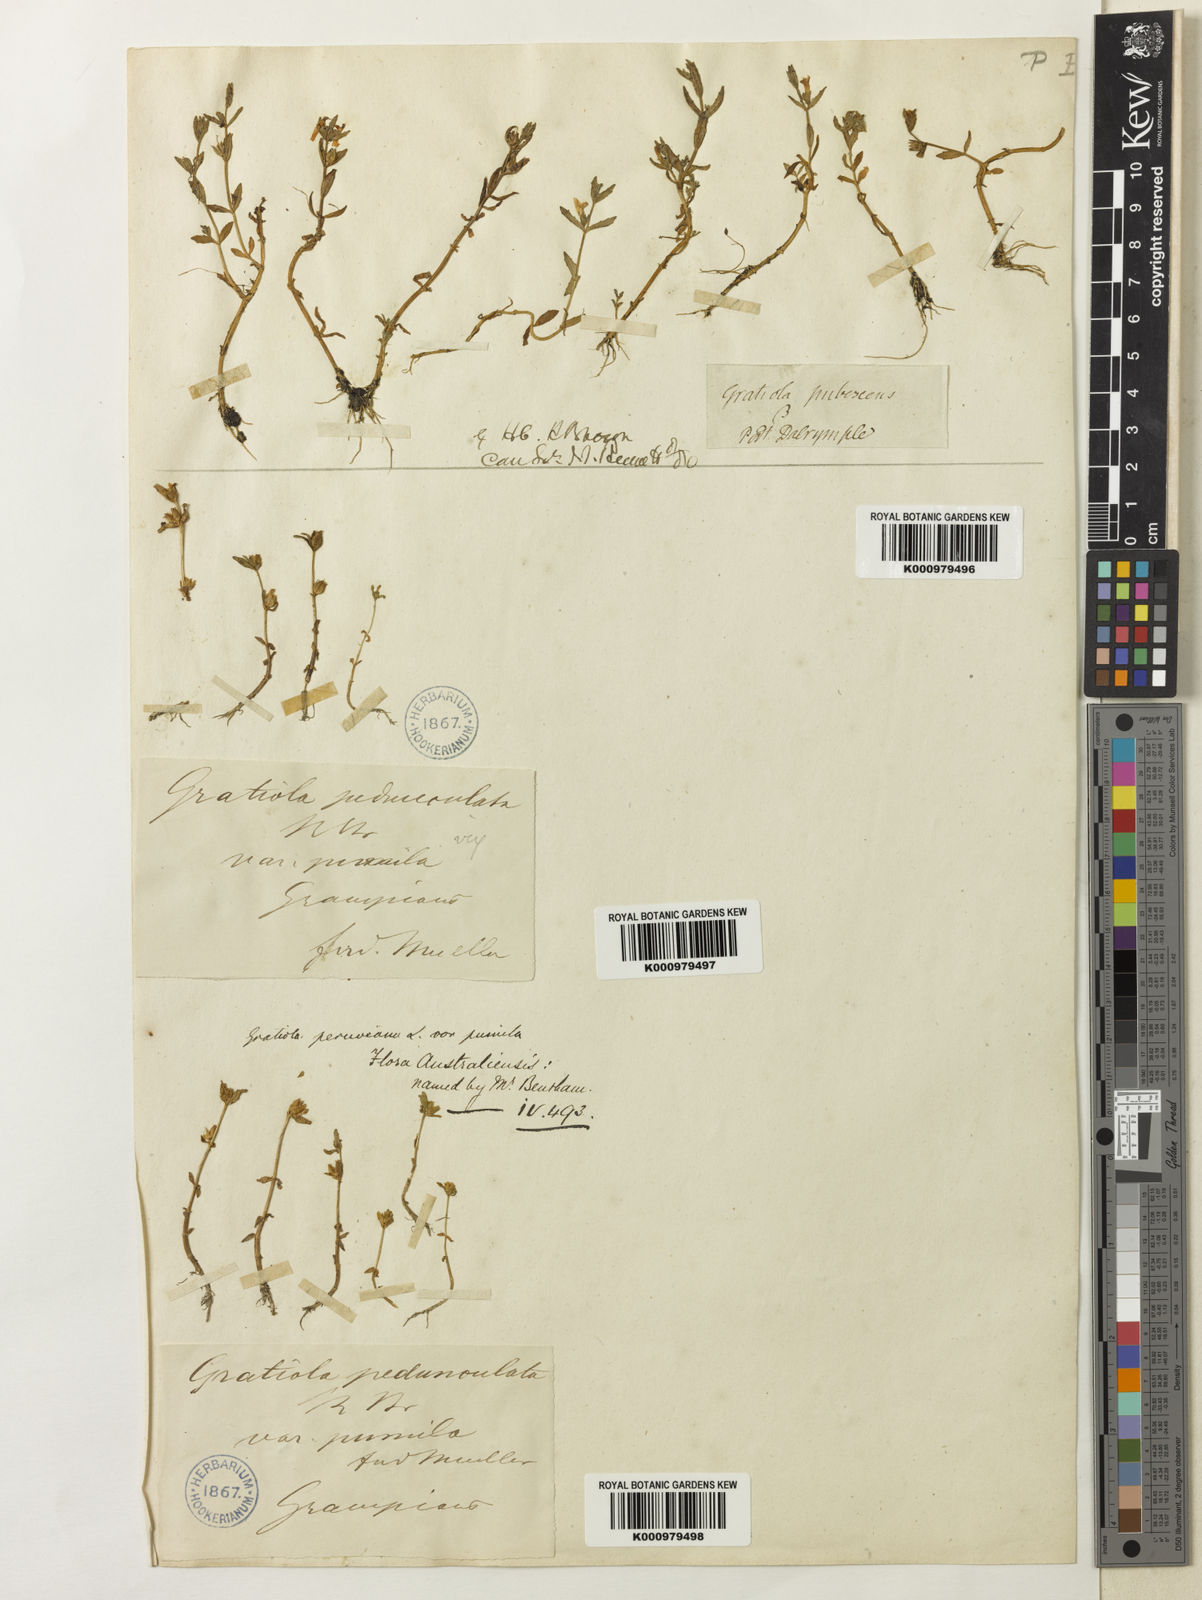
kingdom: Plantae
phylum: Tracheophyta
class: Magnoliopsida
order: Lamiales
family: Plantaginaceae
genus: Gratiola
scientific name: Gratiola pumilo
